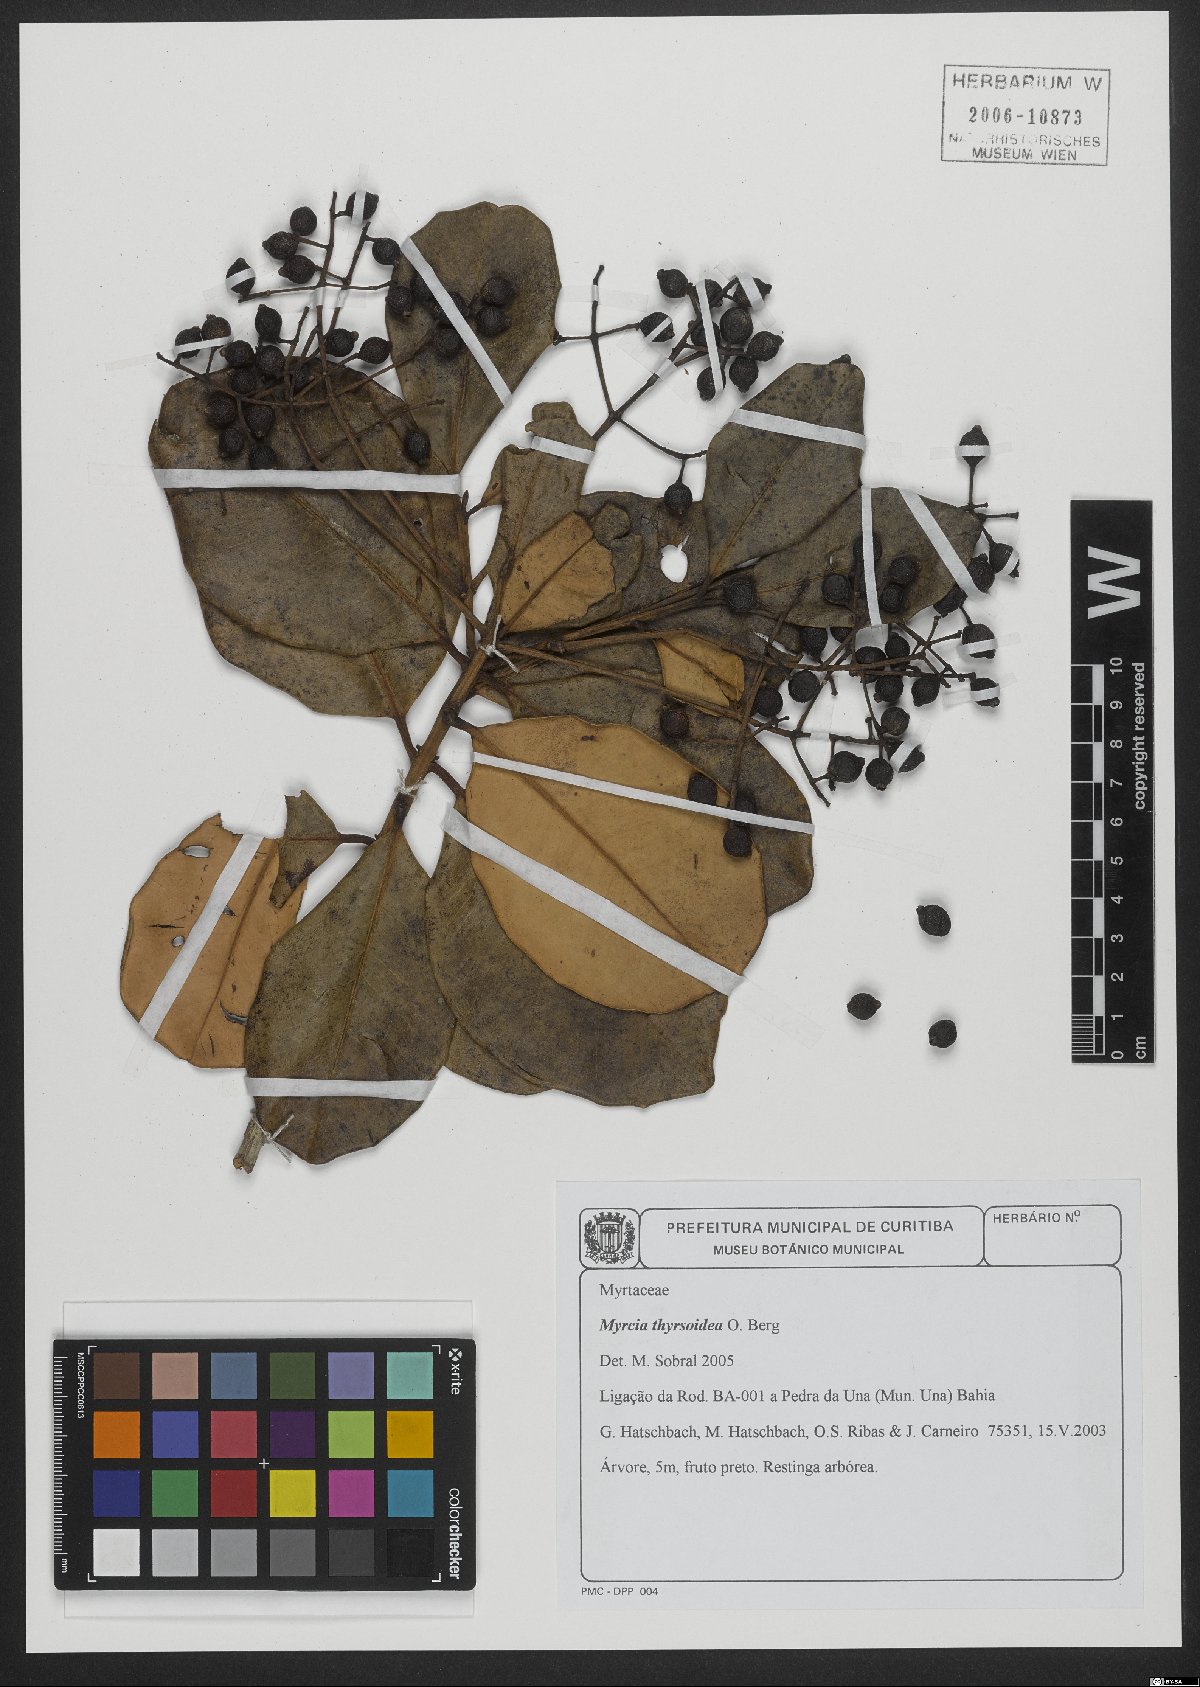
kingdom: Plantae
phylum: Tracheophyta
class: Magnoliopsida
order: Myrtales
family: Myrtaceae
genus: Myrcia
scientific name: Myrcia thyrsoidea
